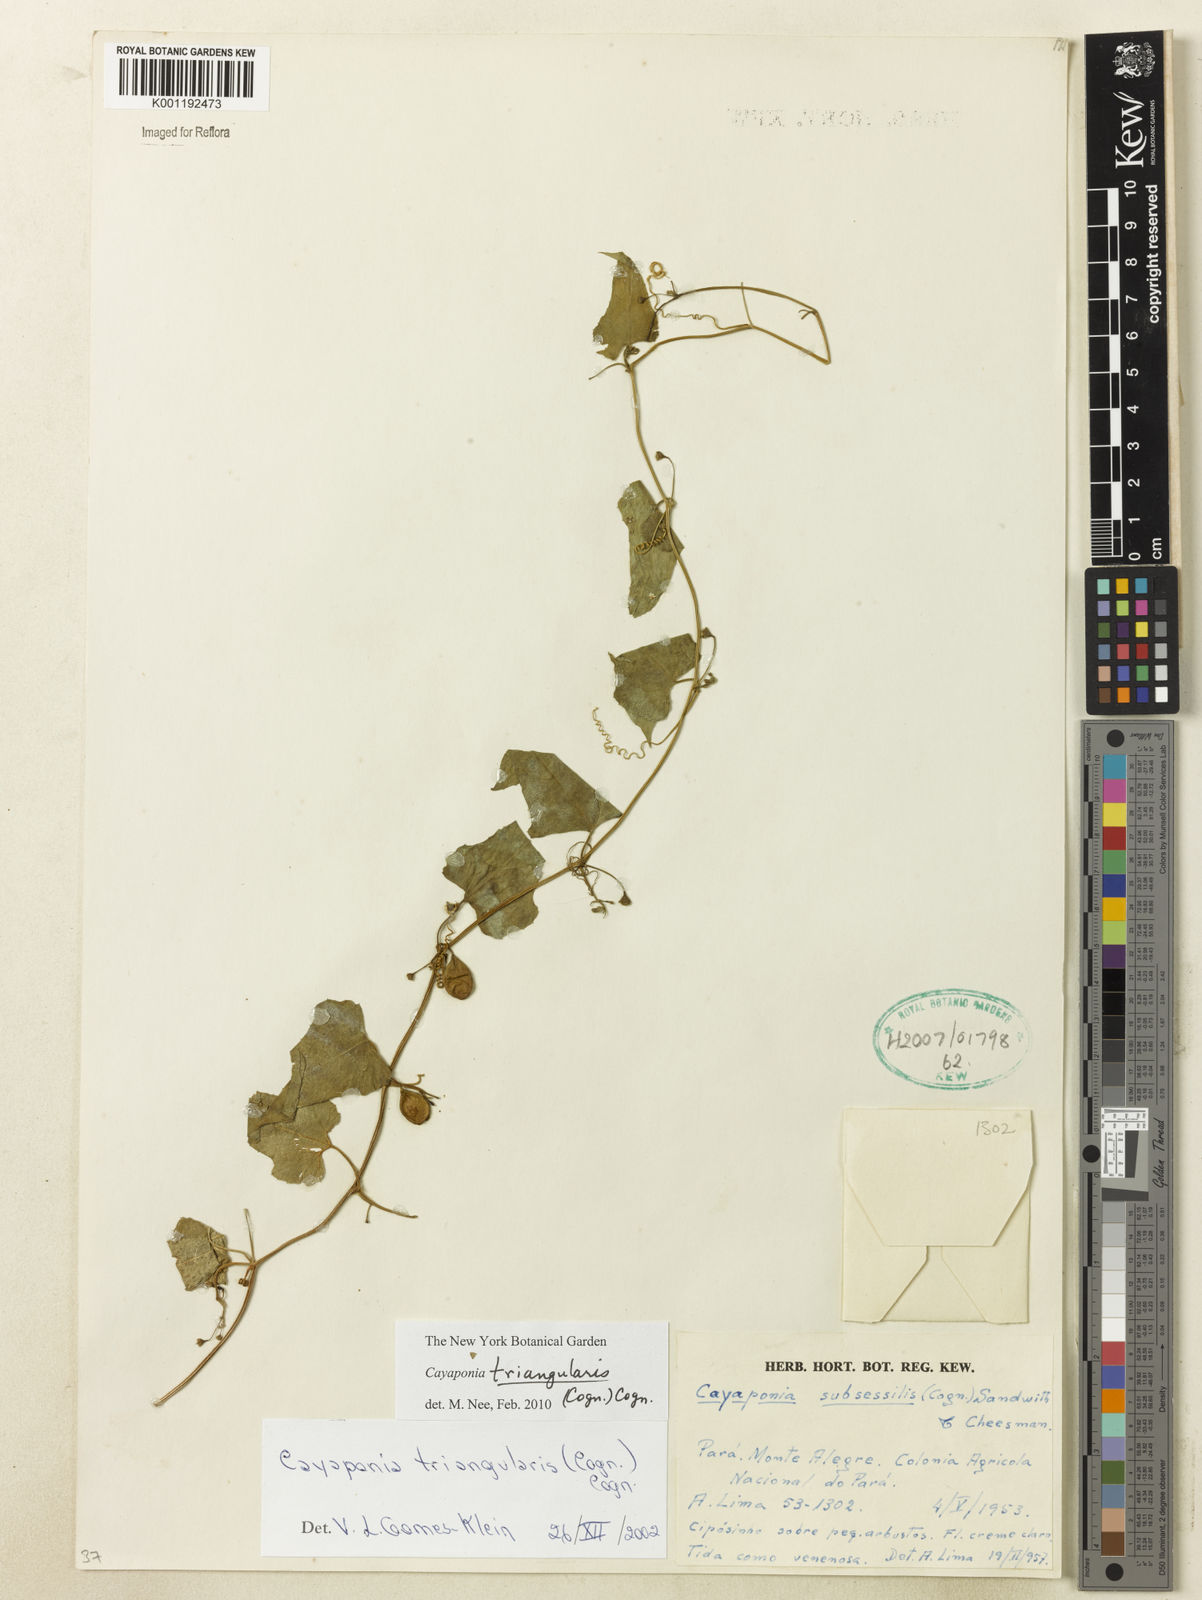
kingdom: Plantae
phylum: Tracheophyta
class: Magnoliopsida
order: Cucurbitales
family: Cucurbitaceae
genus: Cayaponia
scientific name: Cayaponia triangularis
